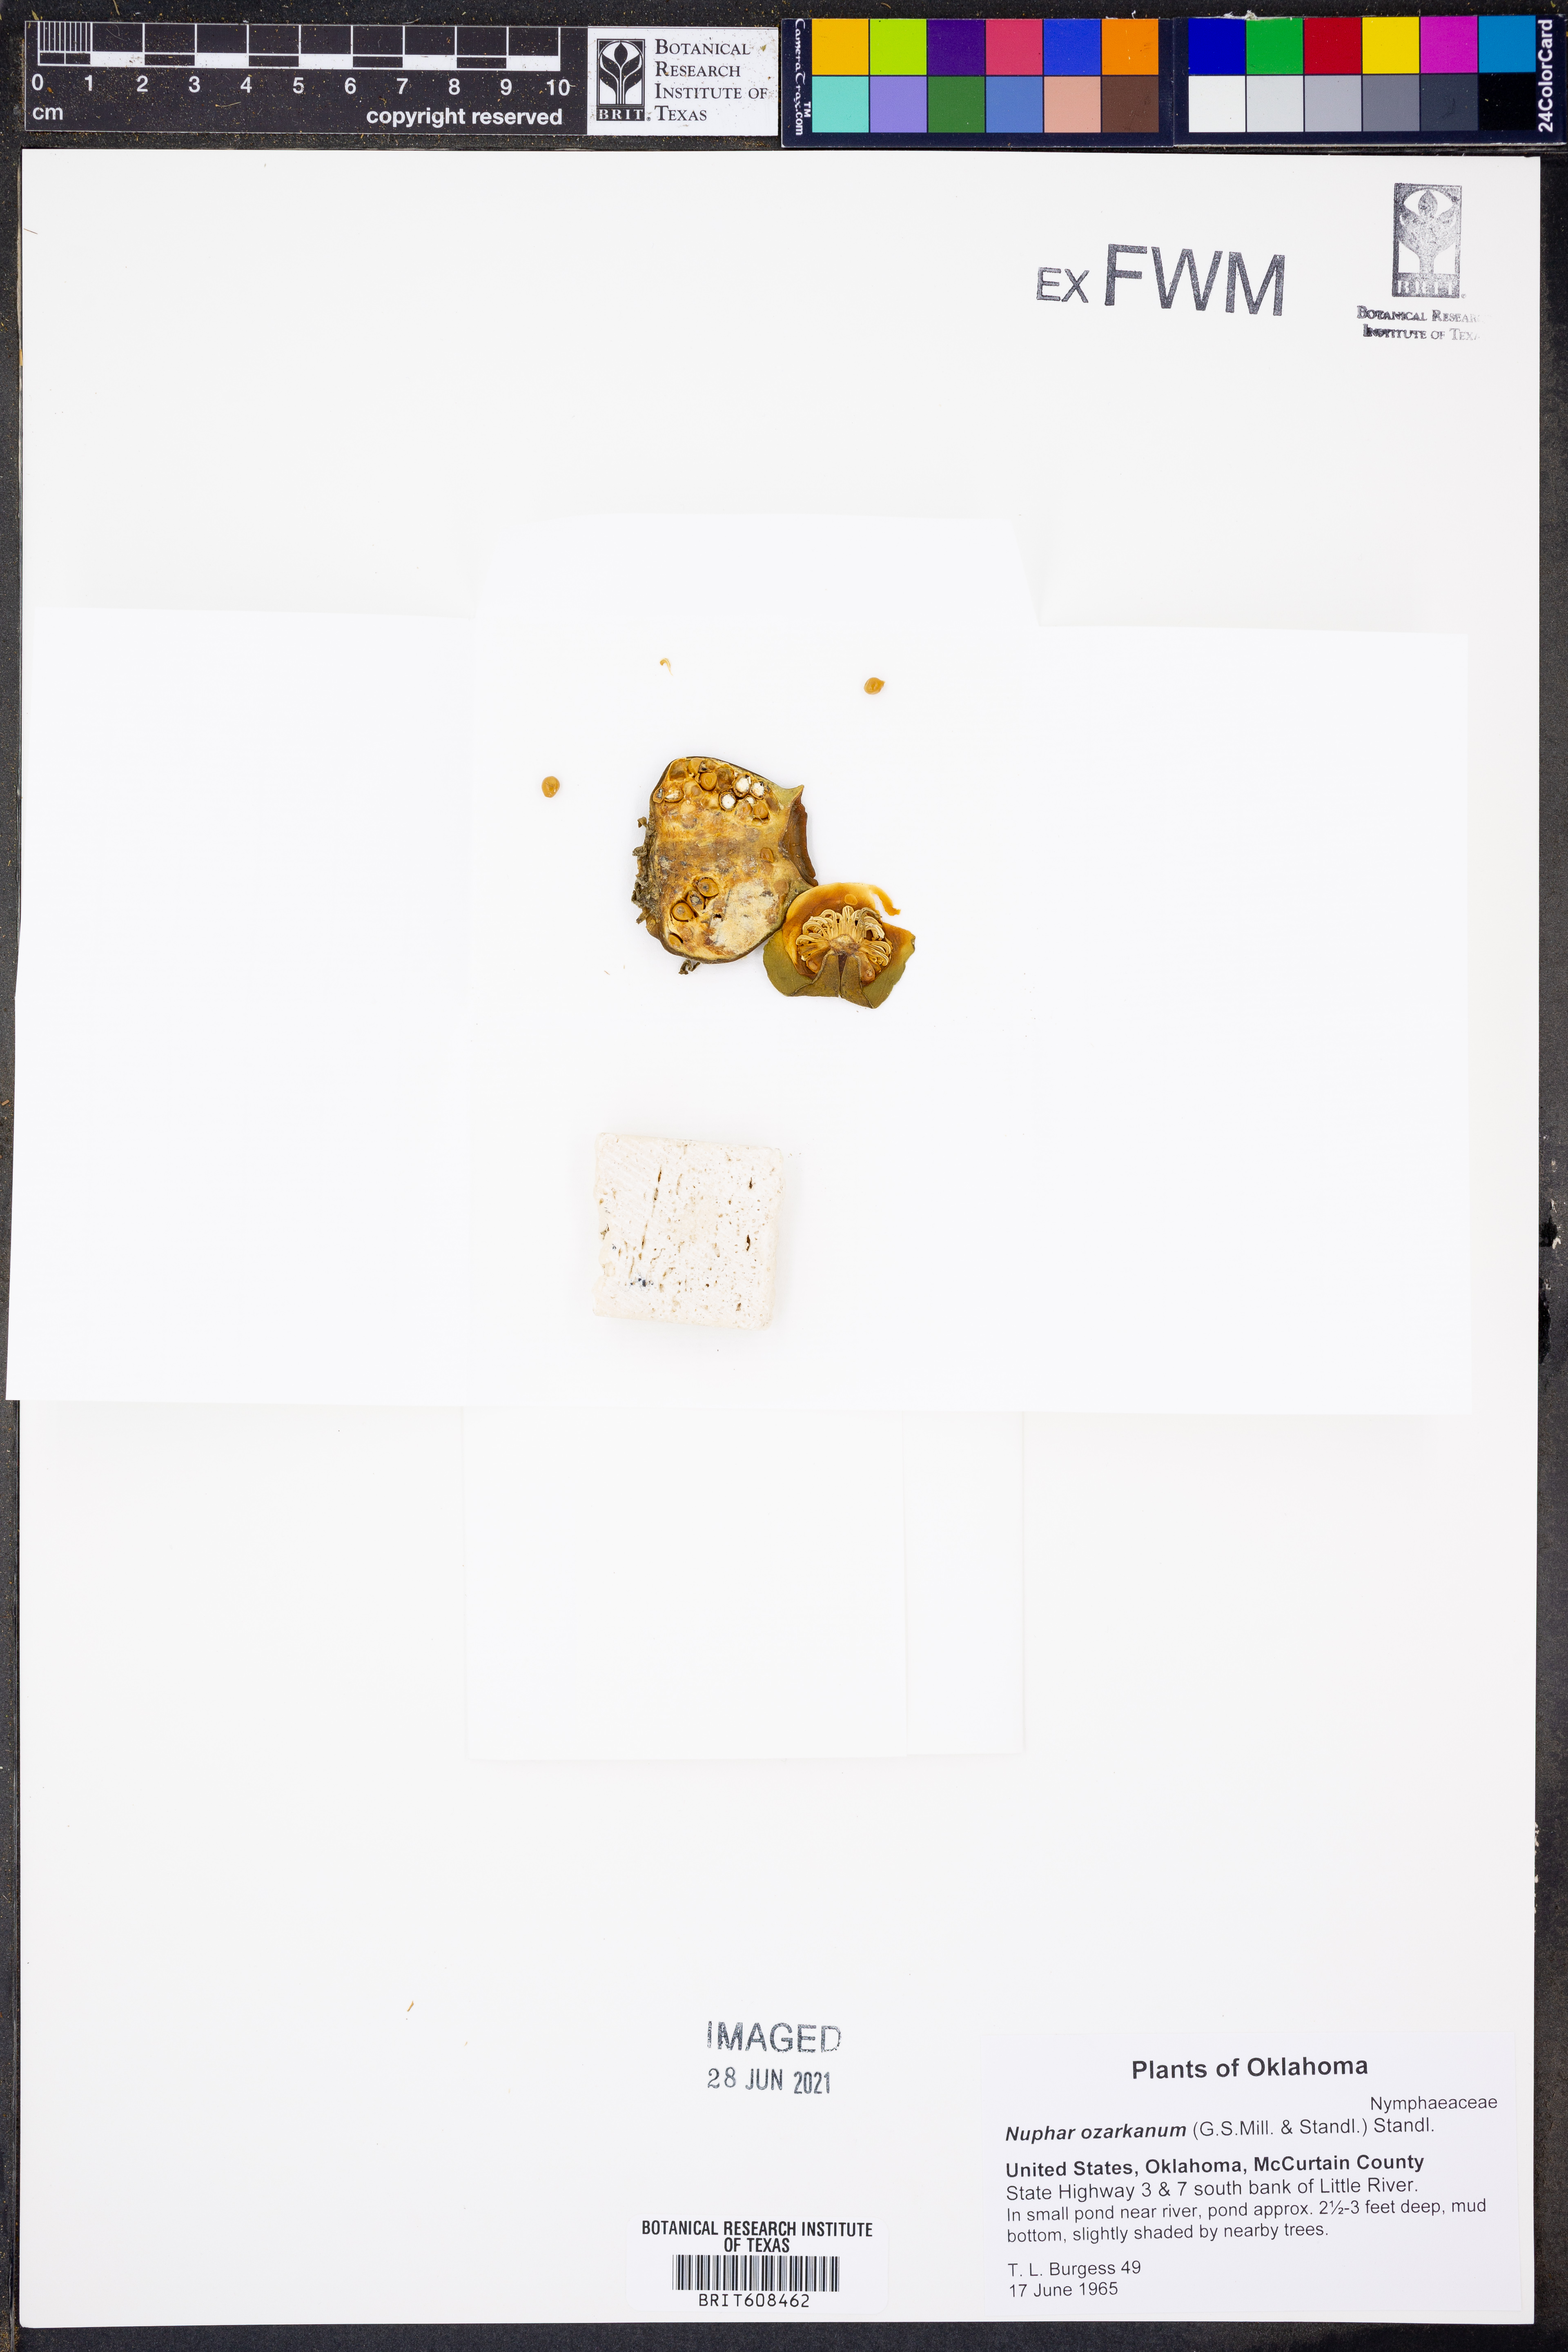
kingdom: Plantae
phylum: Tracheophyta
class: Magnoliopsida
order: Nymphaeales
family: Nymphaeaceae
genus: Nuphar
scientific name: Nuphar advena
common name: Spatter-dock
